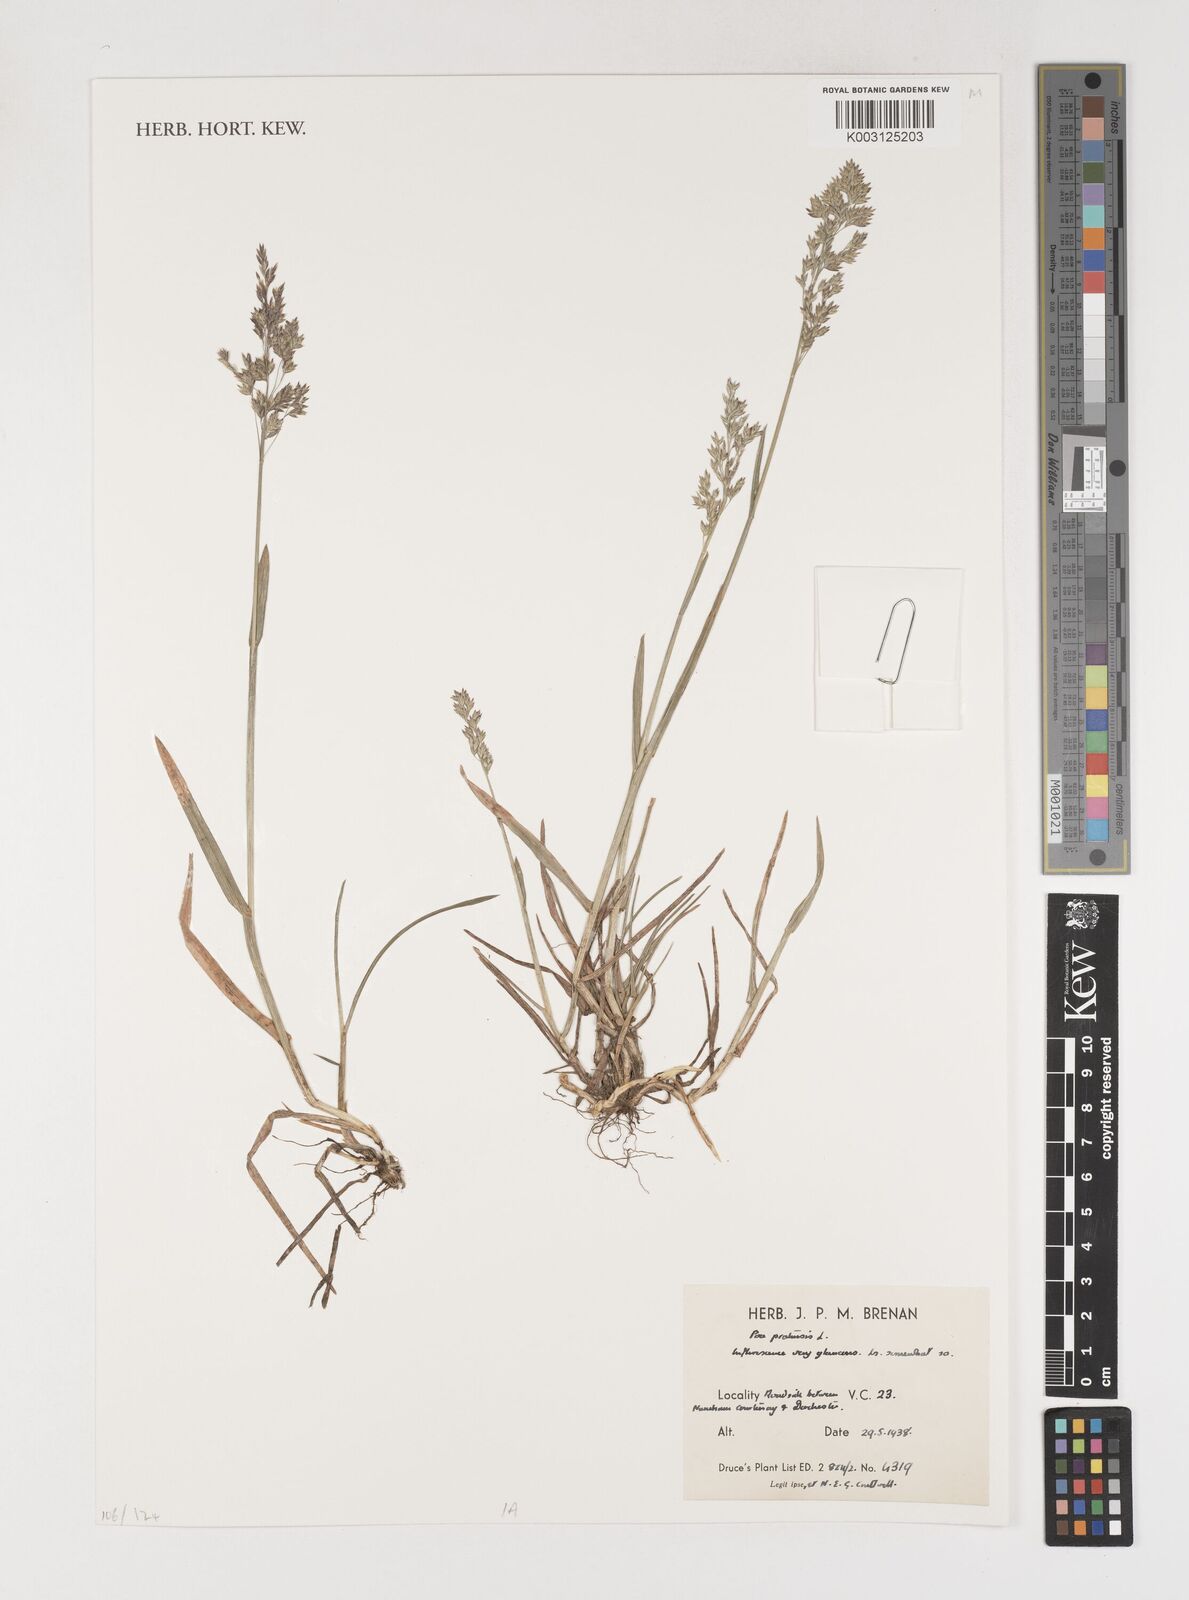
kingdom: Plantae
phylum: Tracheophyta
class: Liliopsida
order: Poales
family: Poaceae
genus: Poa
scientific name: Poa pratensis
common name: Kentucky bluegrass
